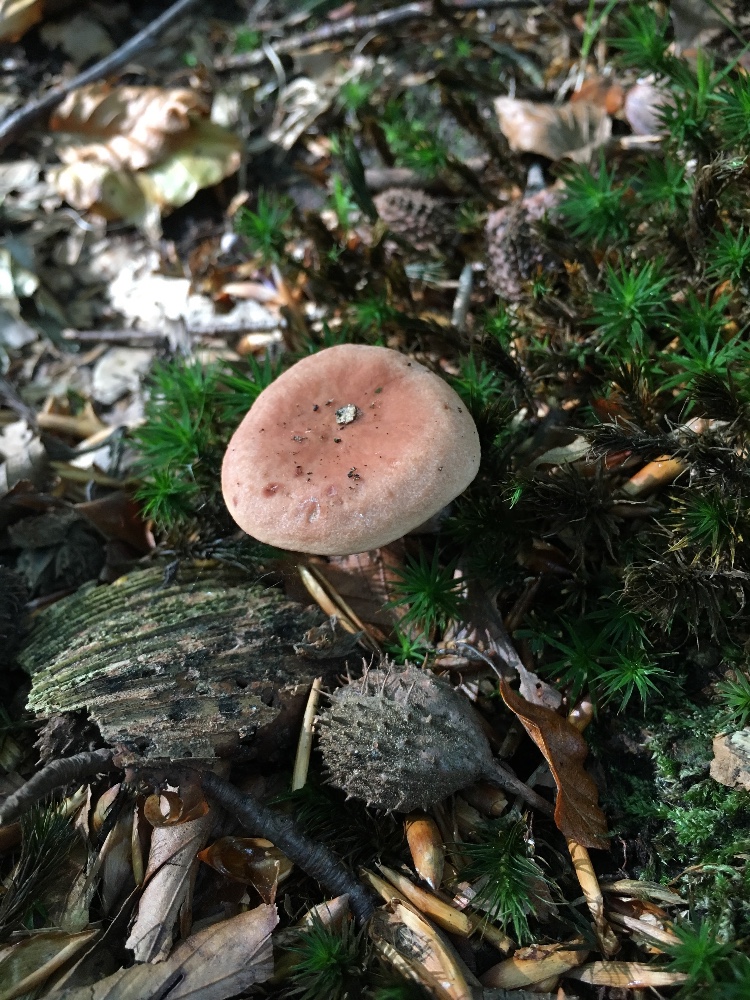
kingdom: Fungi
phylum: Basidiomycota
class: Agaricomycetes
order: Russulales
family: Russulaceae
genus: Lactarius
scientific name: Lactarius decipiens
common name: pelargonie-mælkehat
